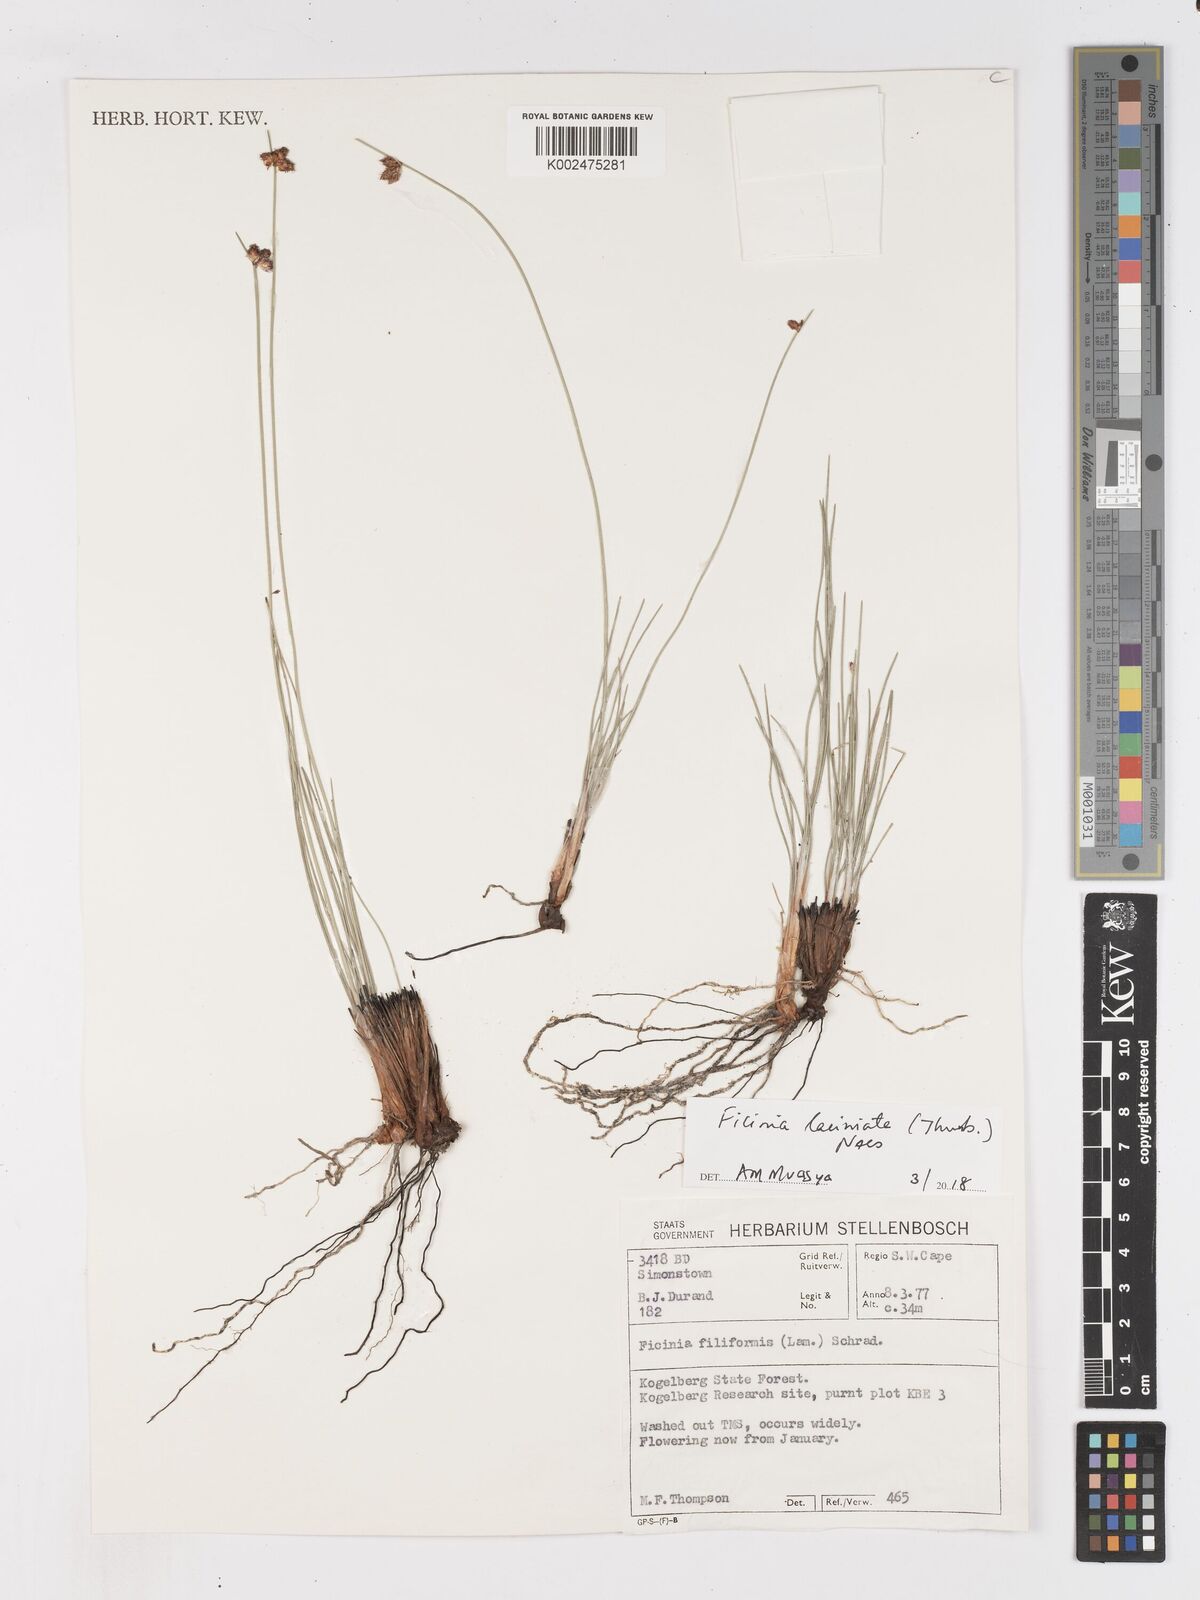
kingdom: Plantae
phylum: Tracheophyta
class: Liliopsida
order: Poales
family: Cyperaceae
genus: Ficinia
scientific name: Ficinia laciniata
